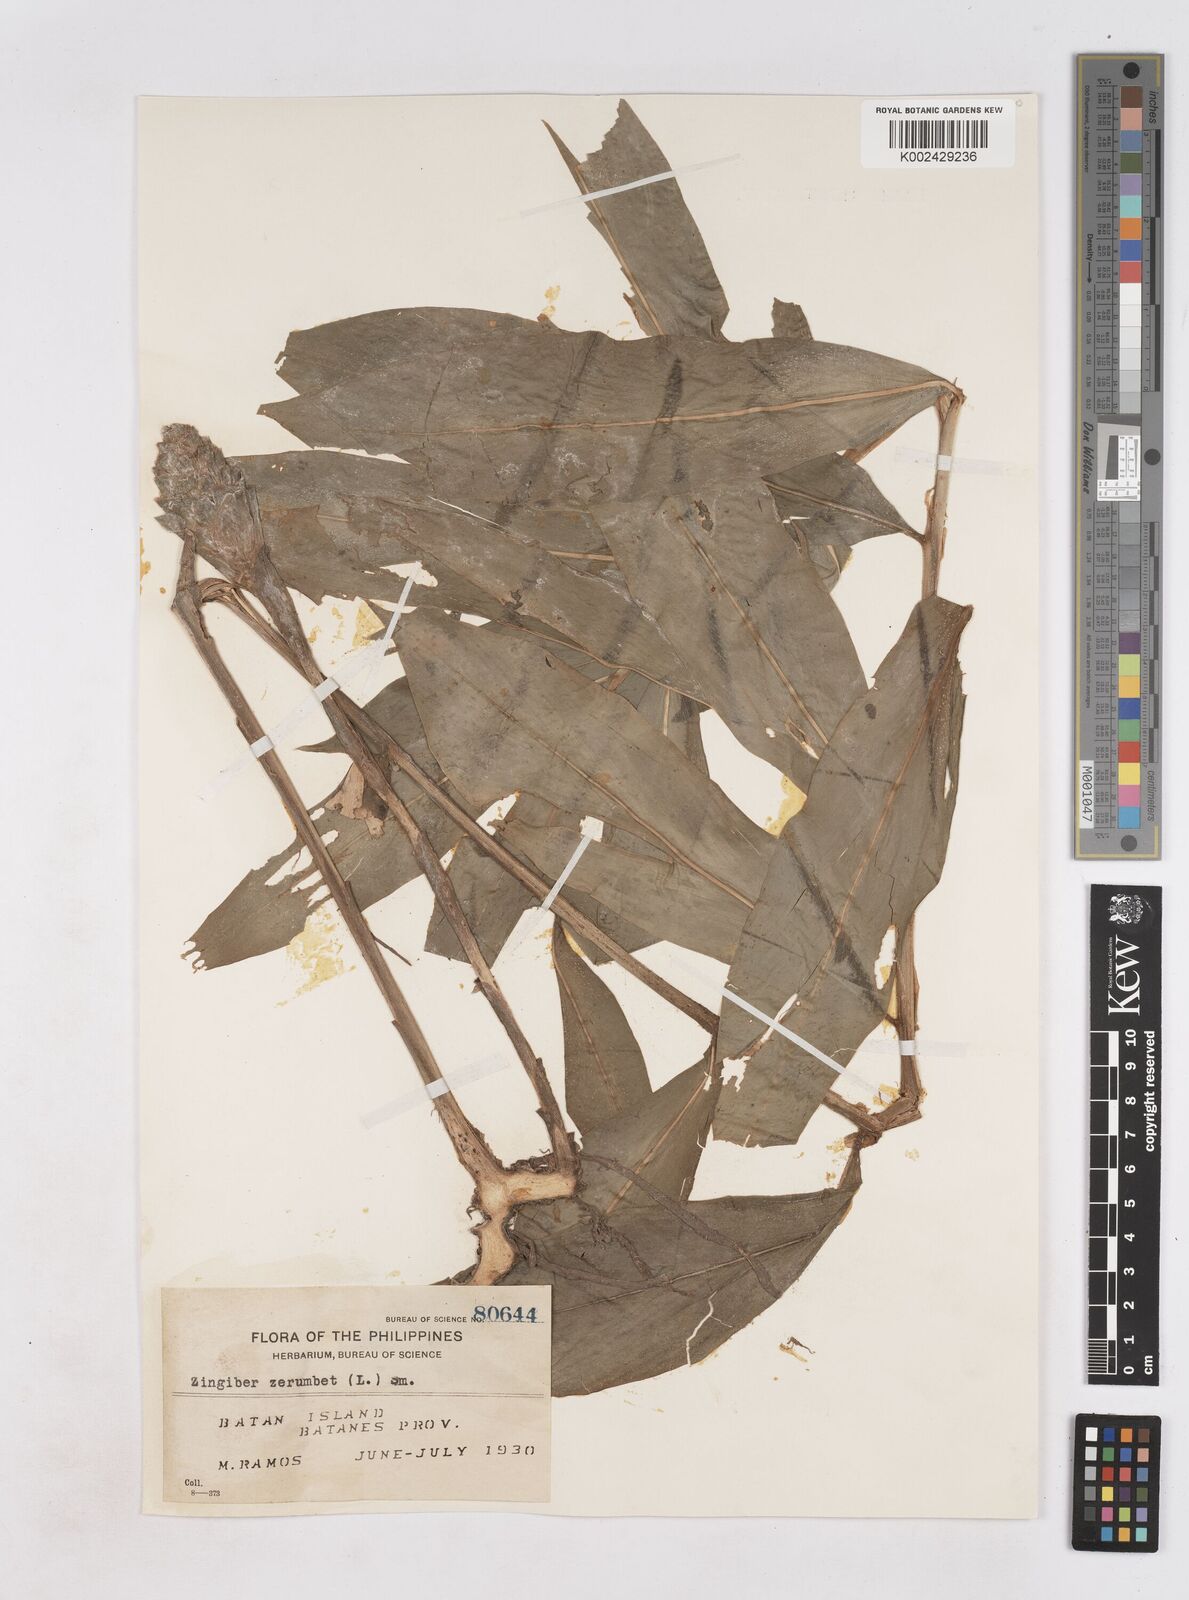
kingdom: Plantae
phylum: Tracheophyta
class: Liliopsida
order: Zingiberales
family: Zingiberaceae
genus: Zingiber
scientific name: Zingiber zerumbet
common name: Bitter ginger
